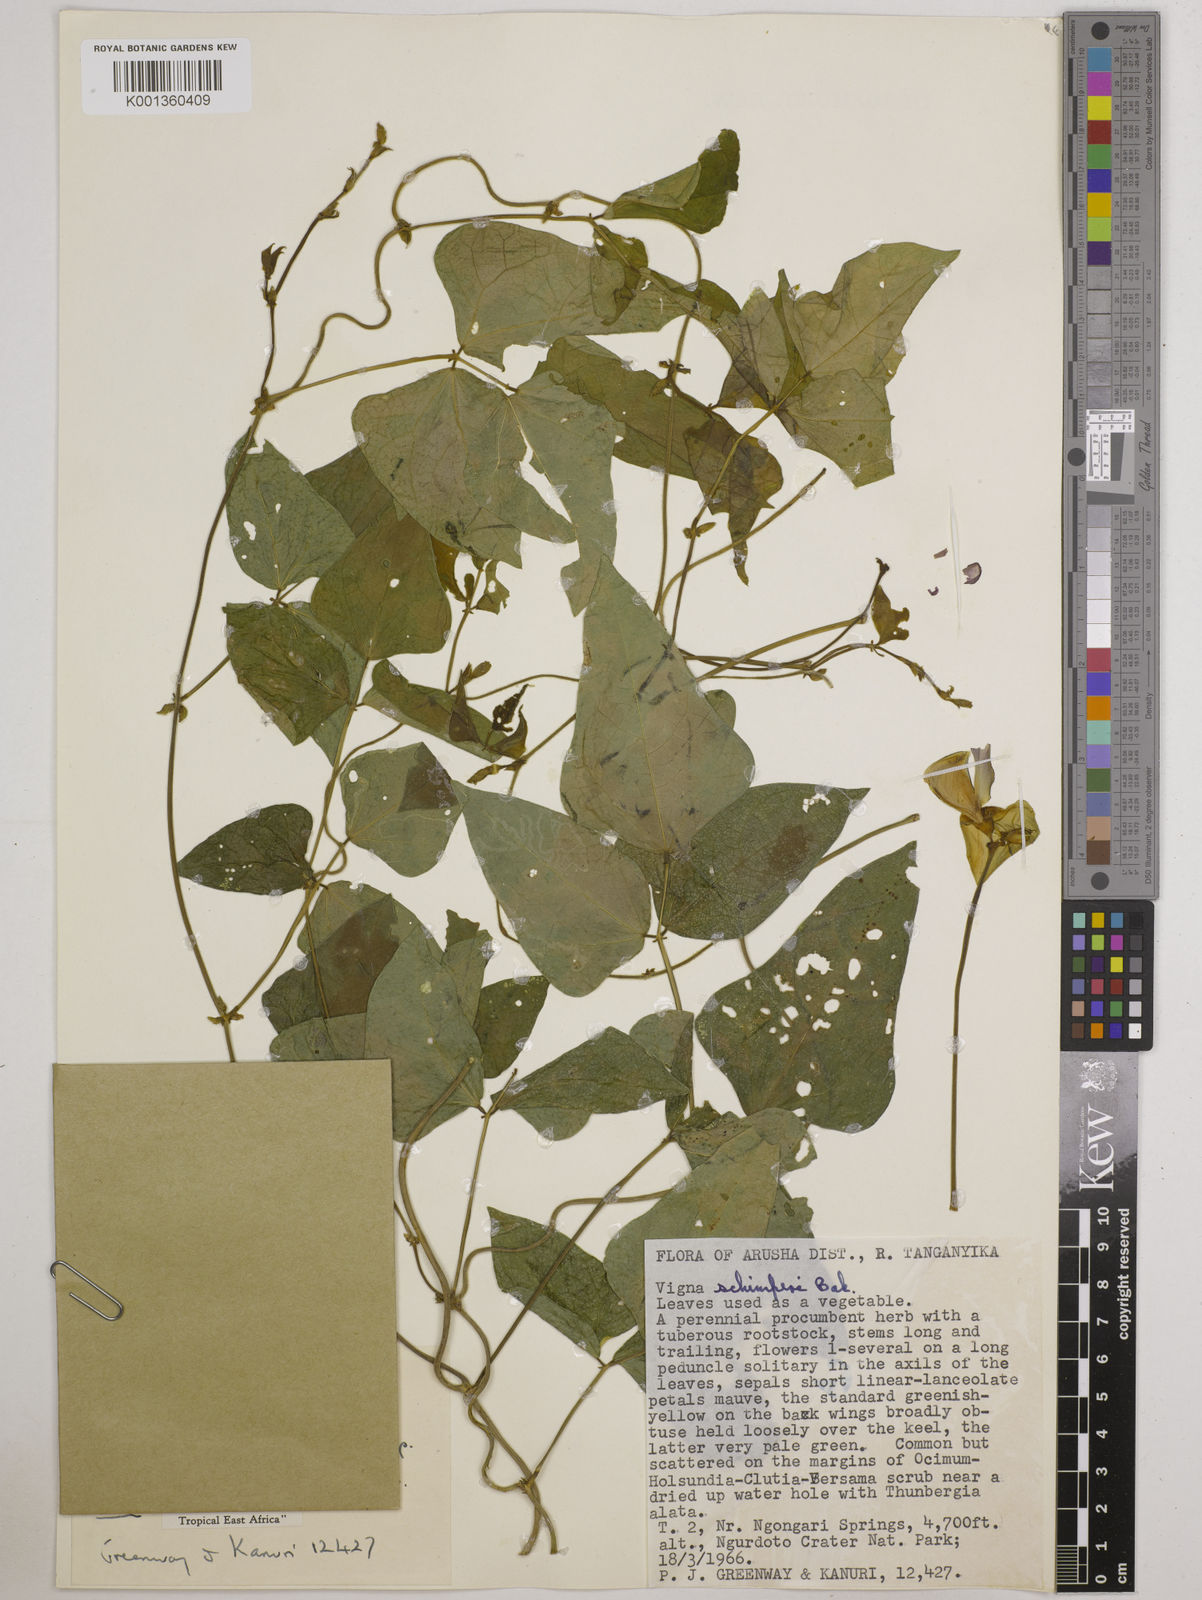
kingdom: Plantae
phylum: Tracheophyta
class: Magnoliopsida
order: Fabales
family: Fabaceae
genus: Vigna
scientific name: Vigna
